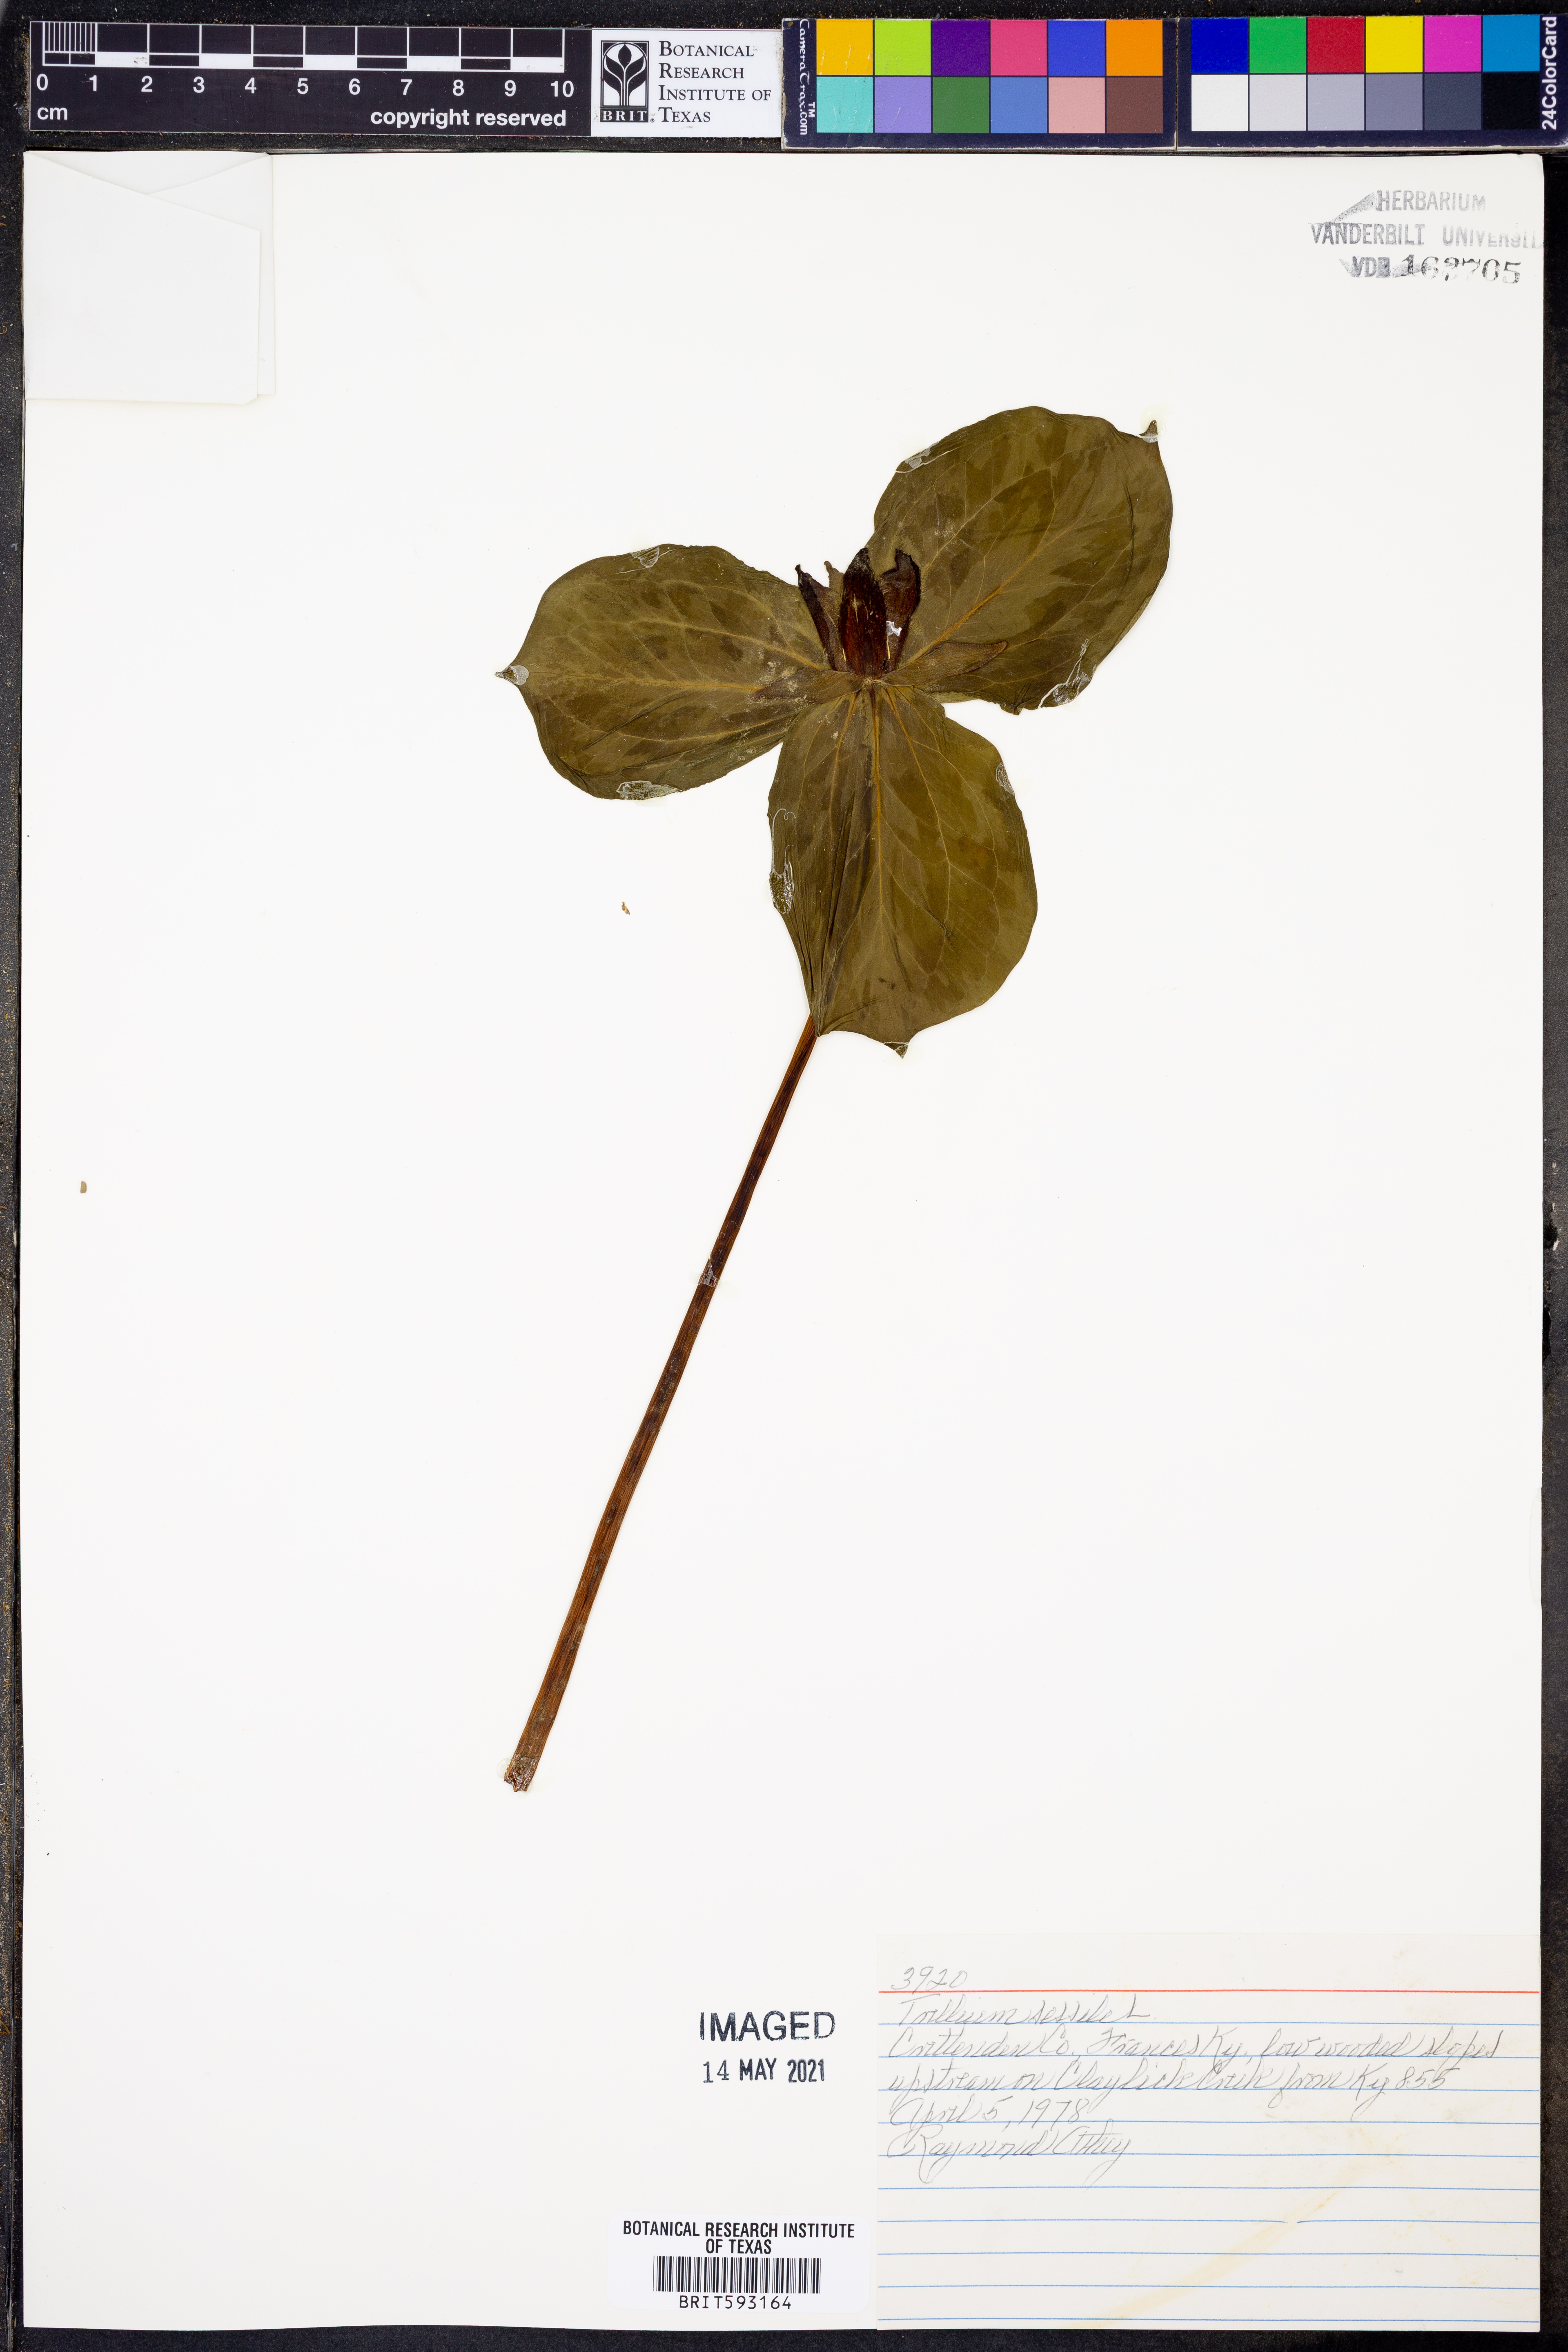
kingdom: Plantae
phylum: Tracheophyta
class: Liliopsida
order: Liliales
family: Melanthiaceae
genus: Trillium
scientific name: Trillium sessile
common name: Sessile trillium
